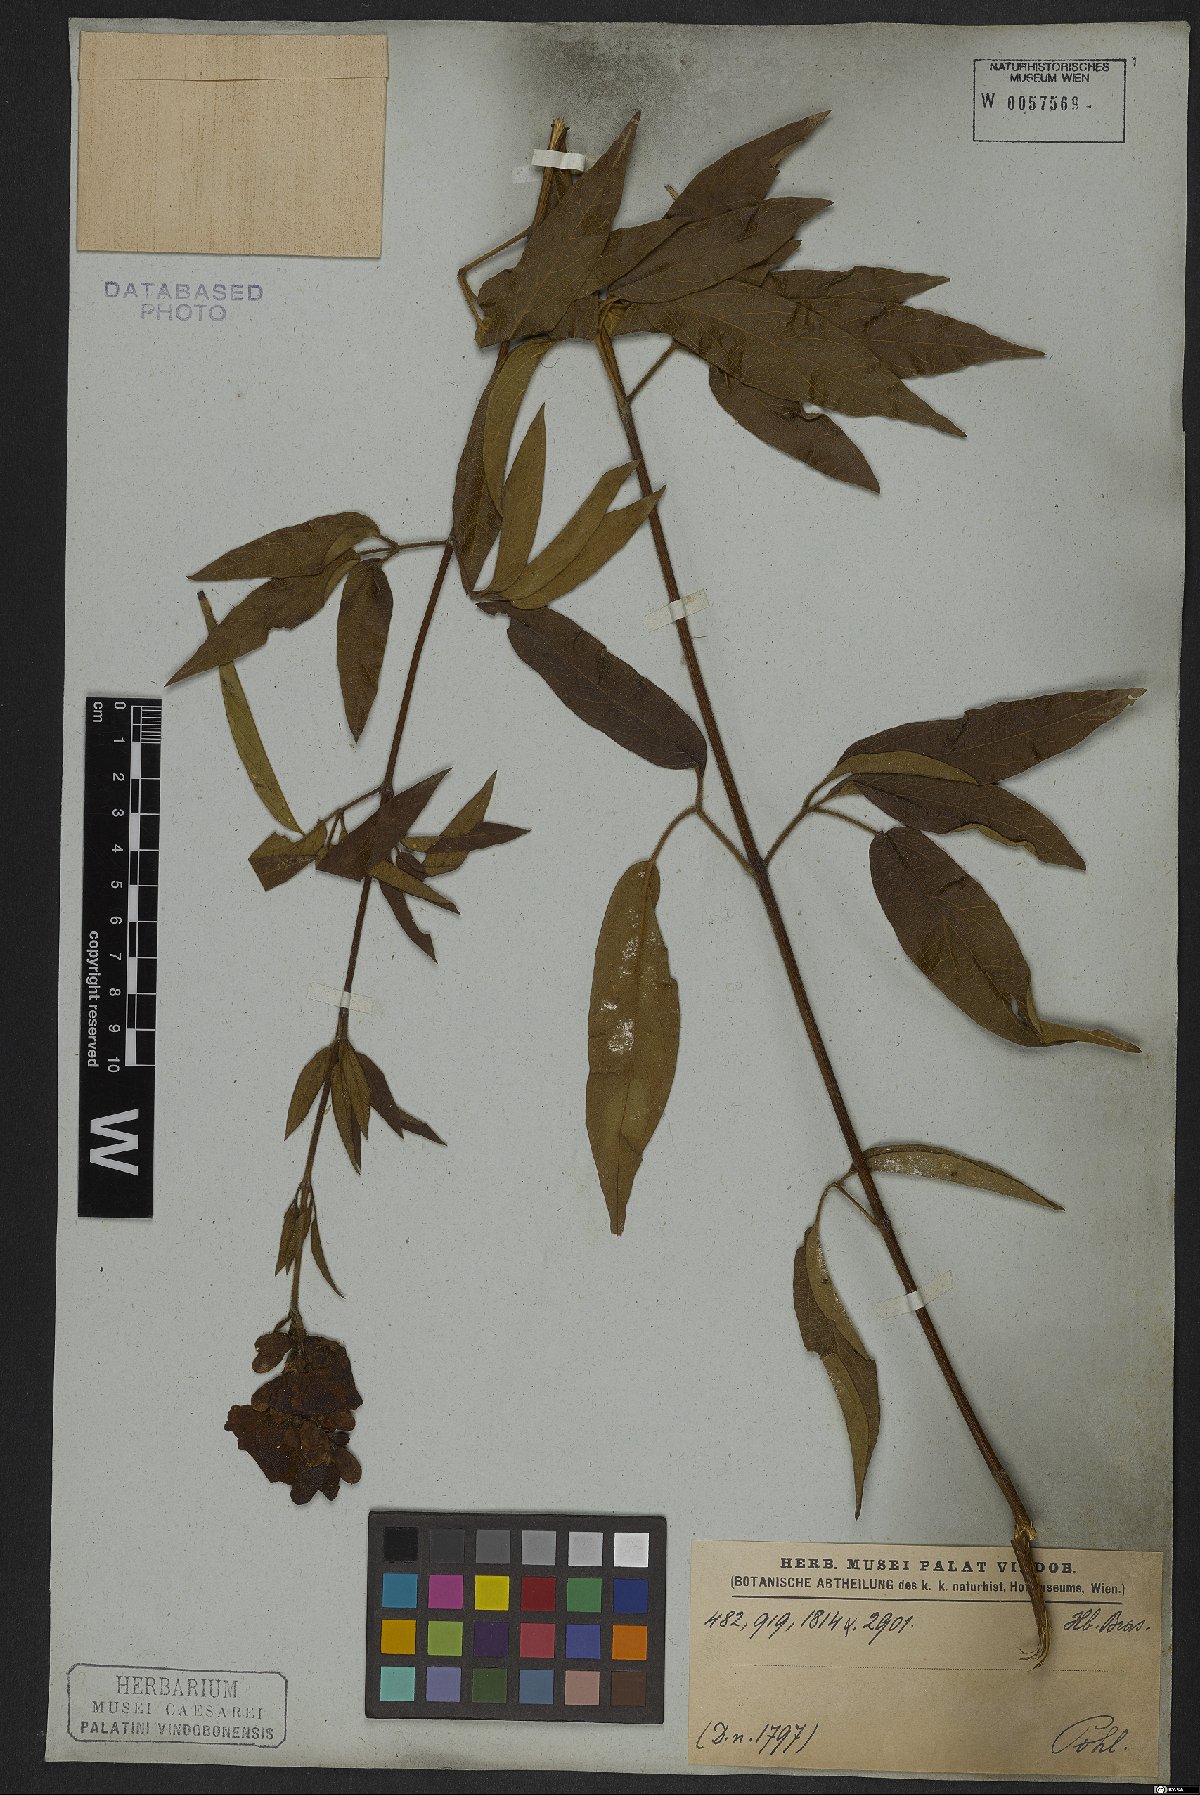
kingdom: Plantae
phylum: Tracheophyta
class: Magnoliopsida
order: Lamiales
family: Bignoniaceae
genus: Cuspidaria
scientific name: Cuspidaria sceptrum
